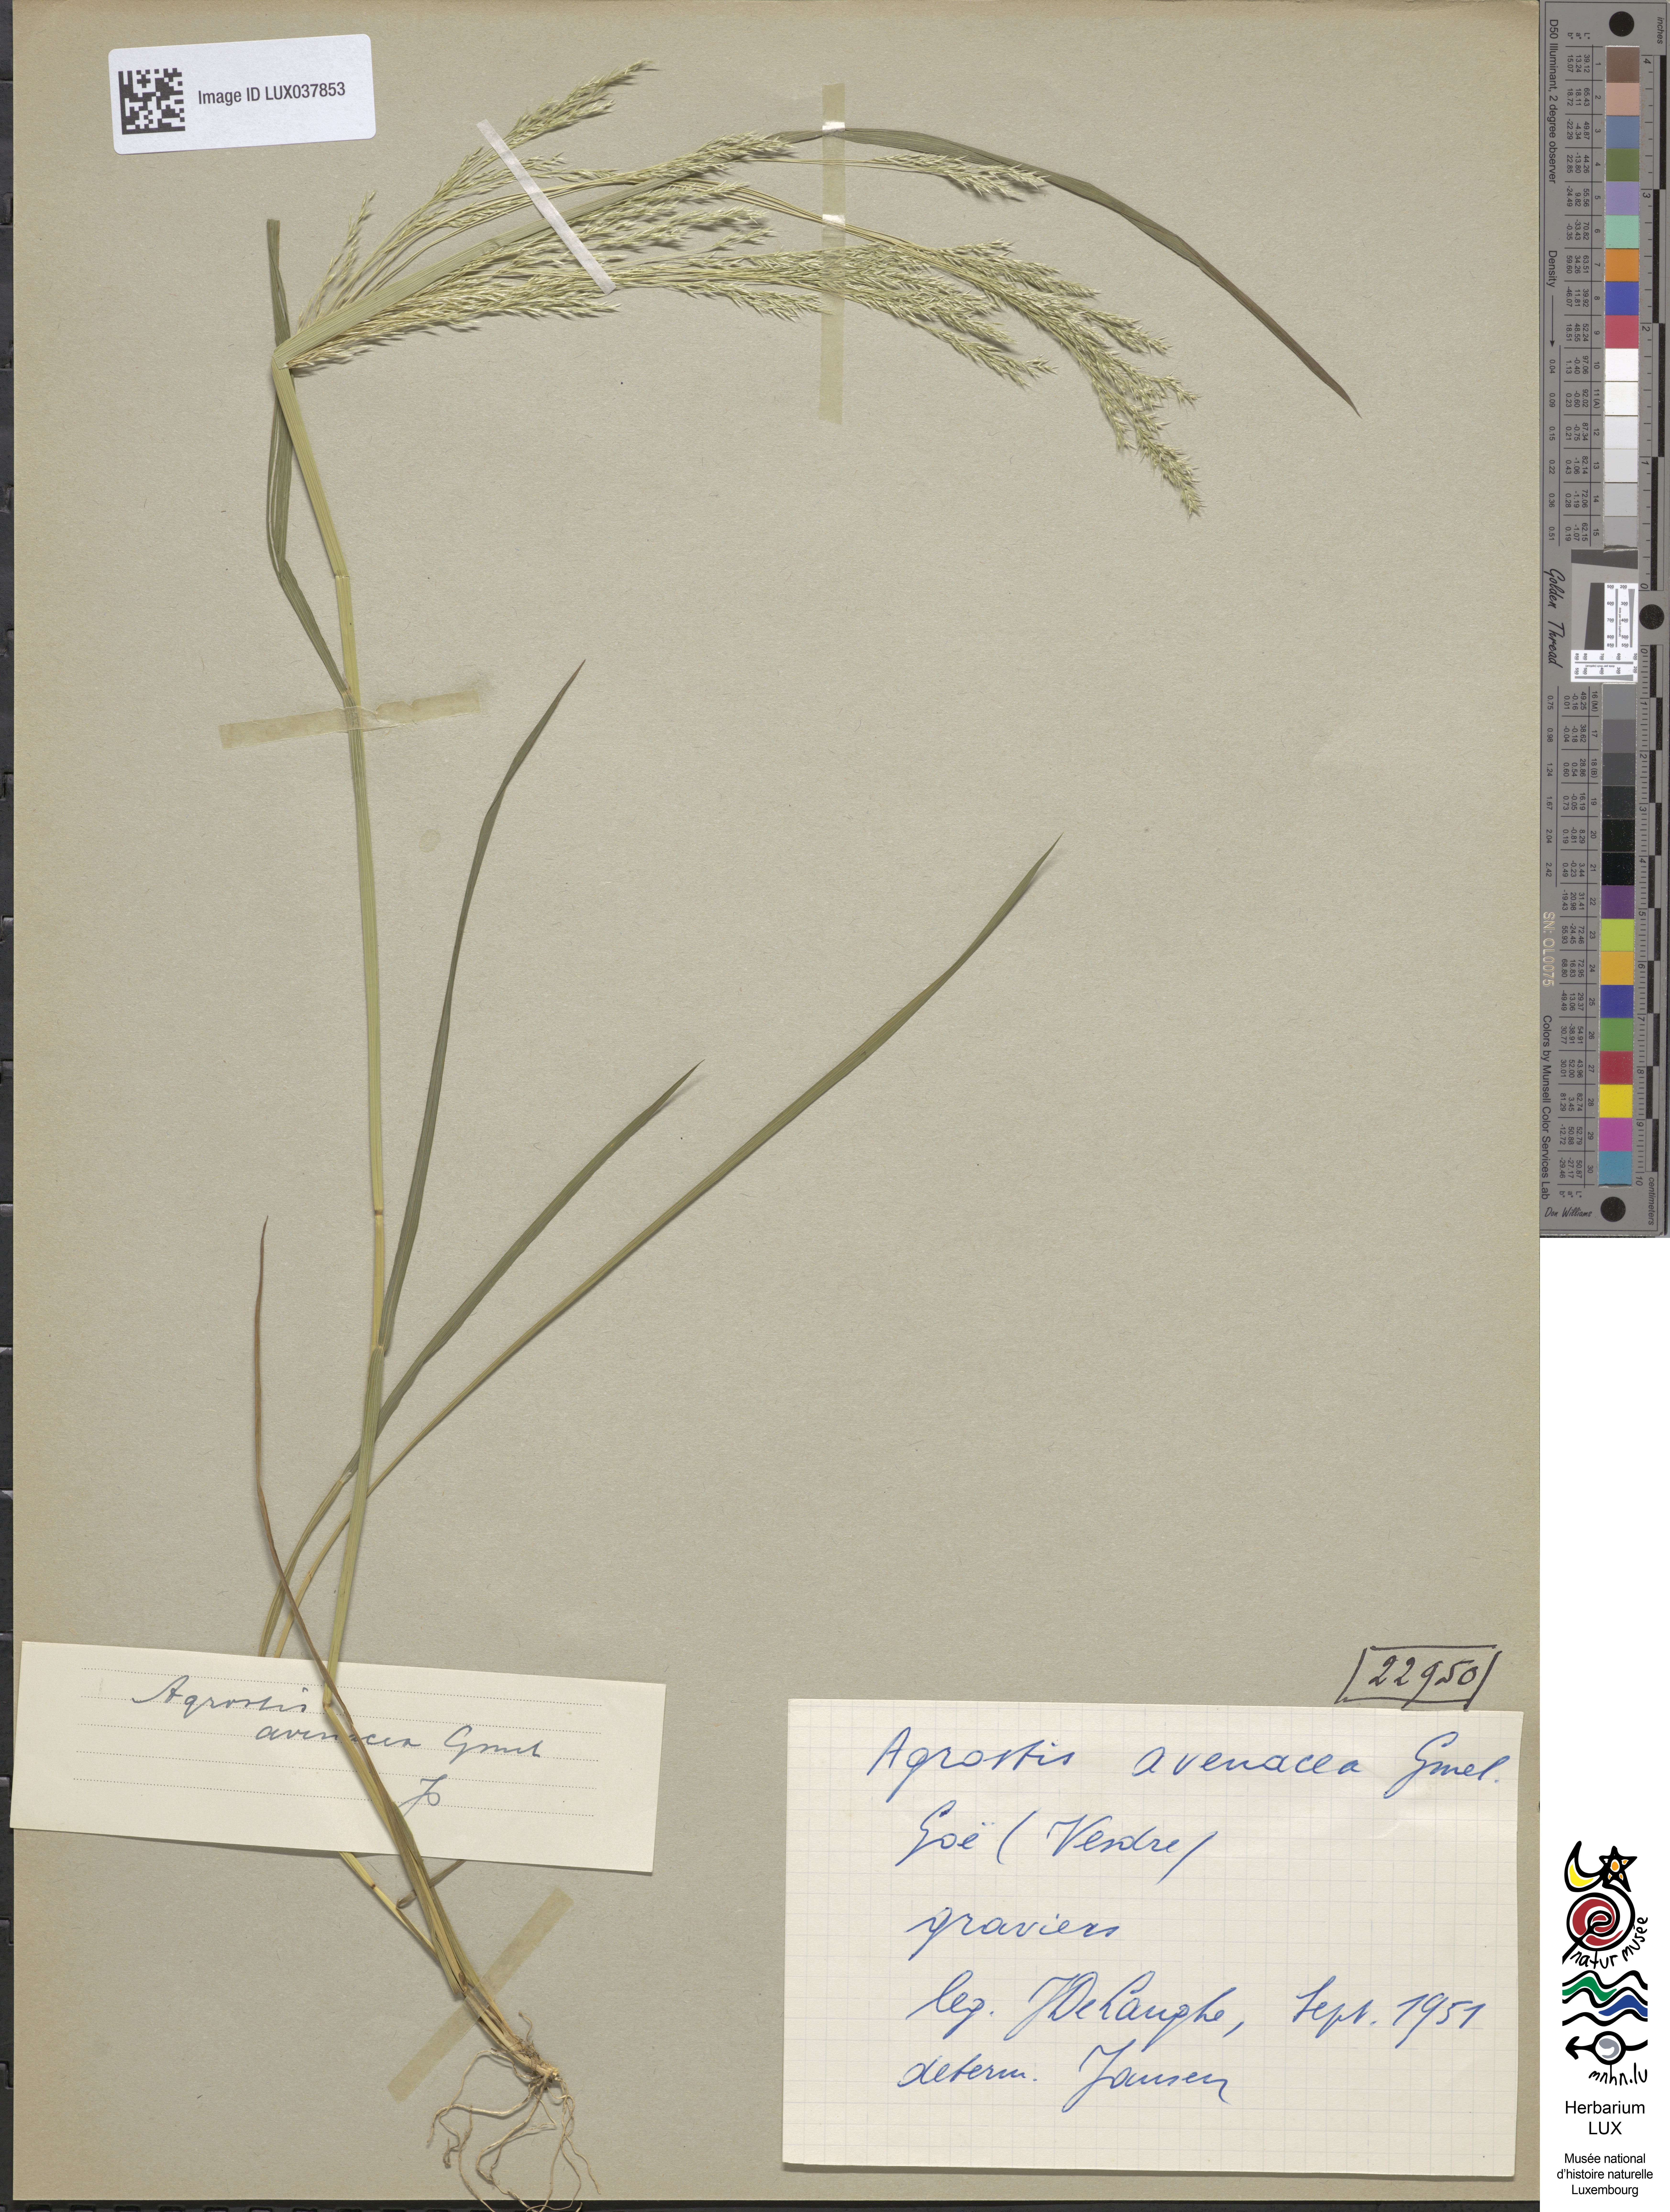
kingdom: Plantae
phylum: Tracheophyta
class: Liliopsida
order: Poales
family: Poaceae
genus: Lachnagrostis
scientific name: Lachnagrostis filiformis
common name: Bentgrass
